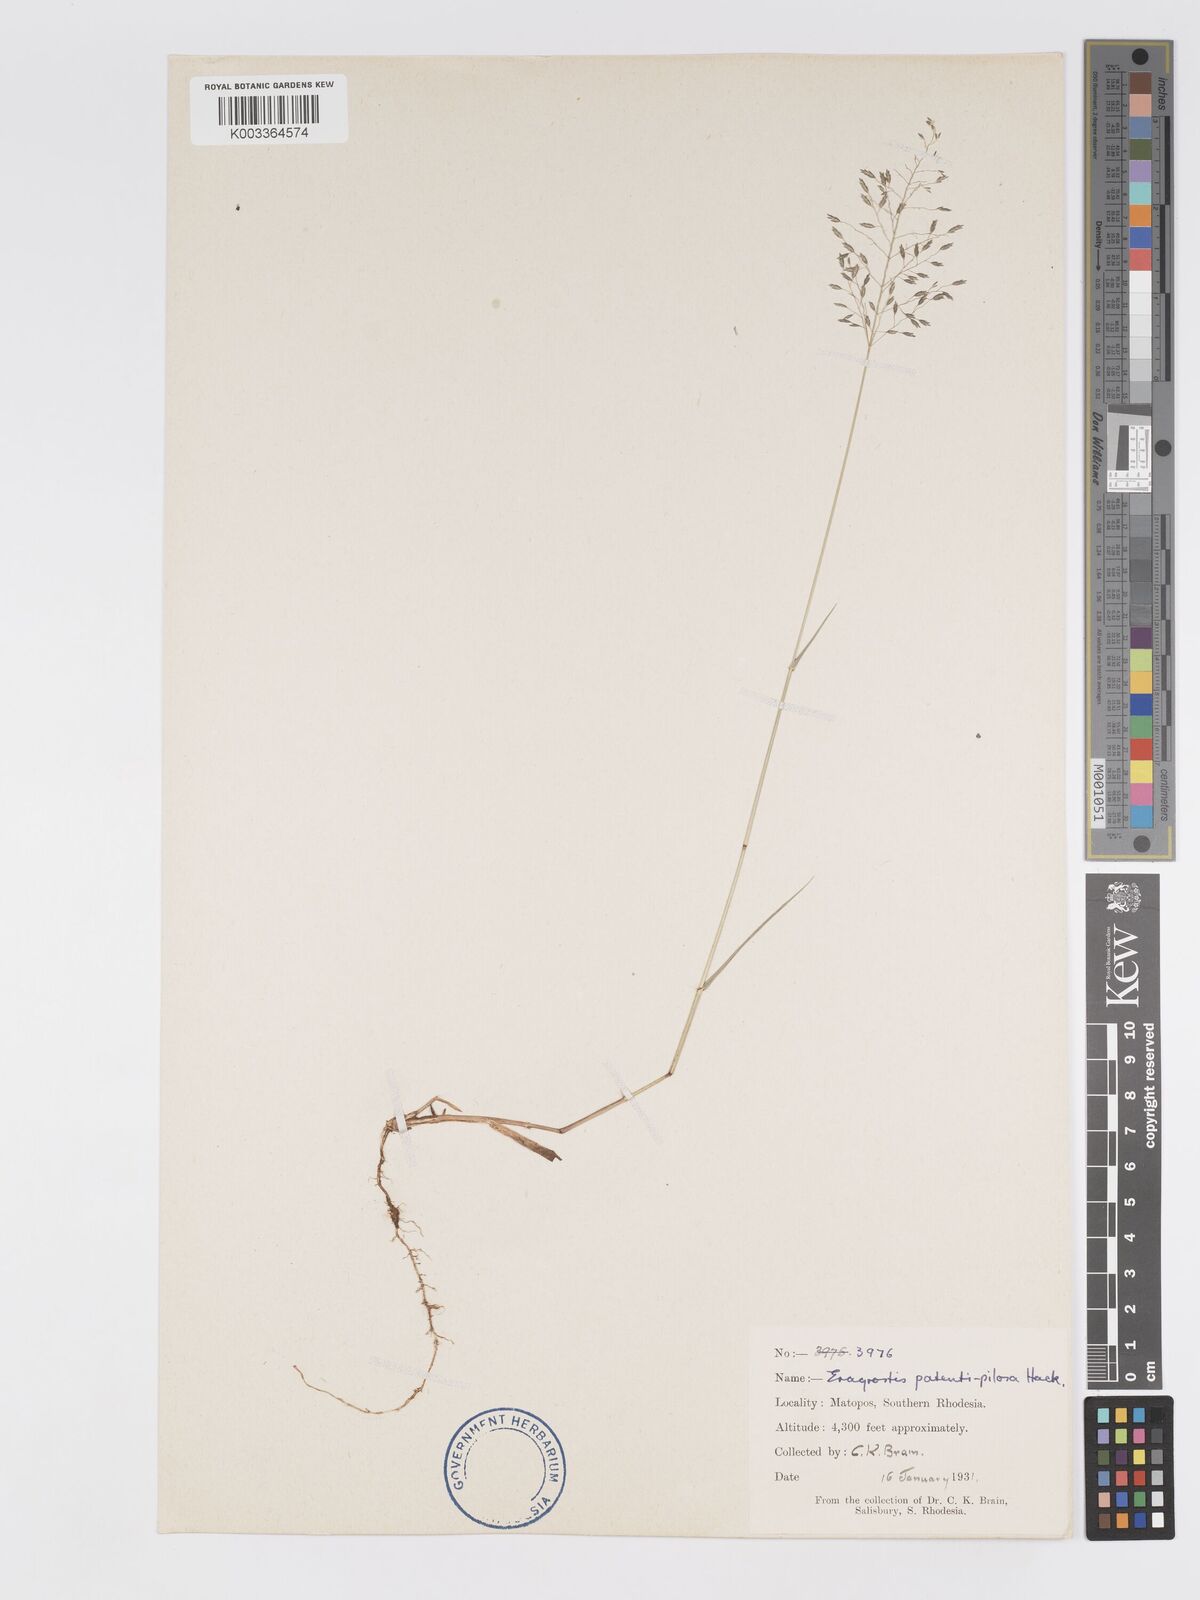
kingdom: Plantae
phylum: Tracheophyta
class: Liliopsida
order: Poales
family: Poaceae
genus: Eragrostis
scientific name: Eragrostis patentipilosa
